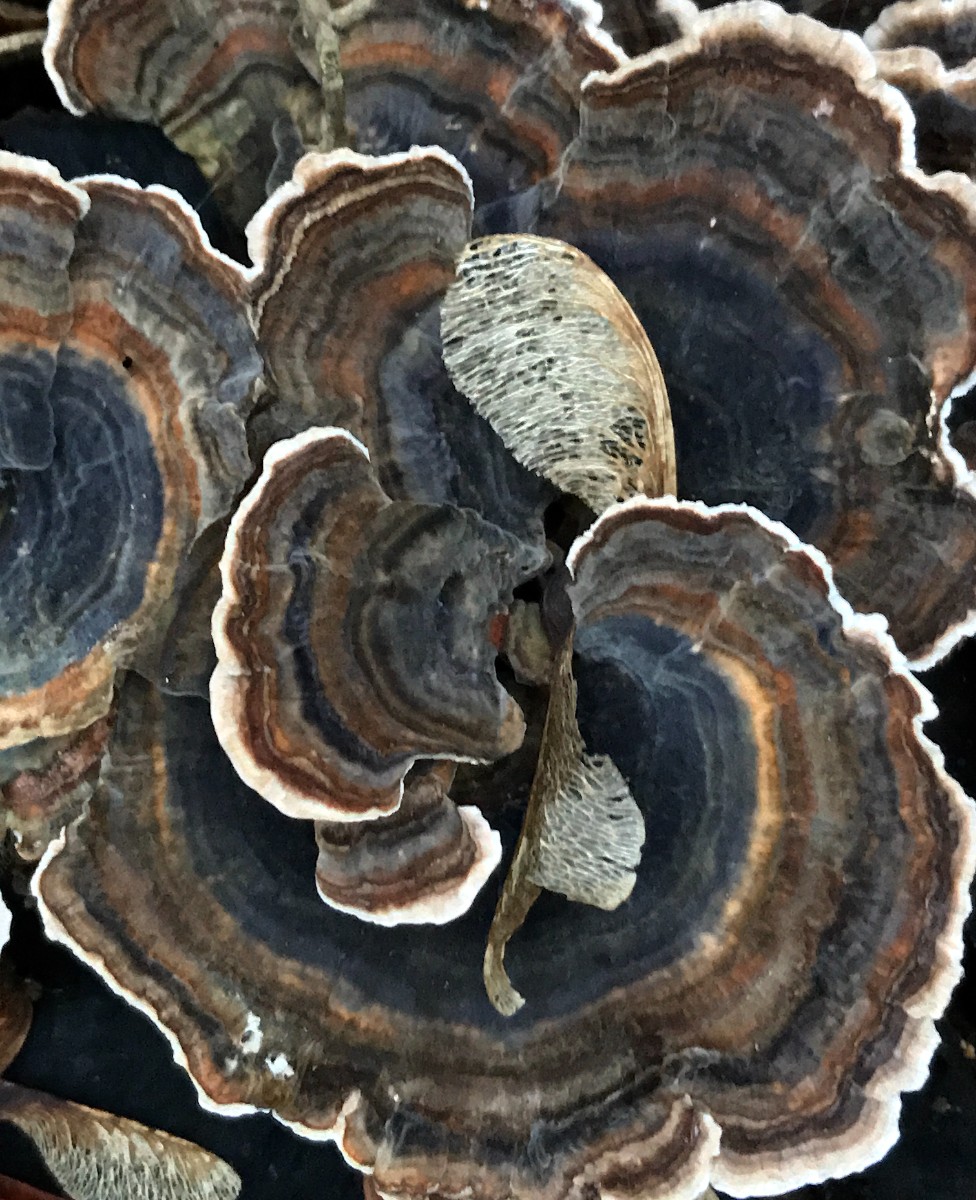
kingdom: Fungi
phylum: Basidiomycota
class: Agaricomycetes
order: Polyporales
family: Polyporaceae
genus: Trametes
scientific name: Trametes versicolor
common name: broget læderporesvamp
